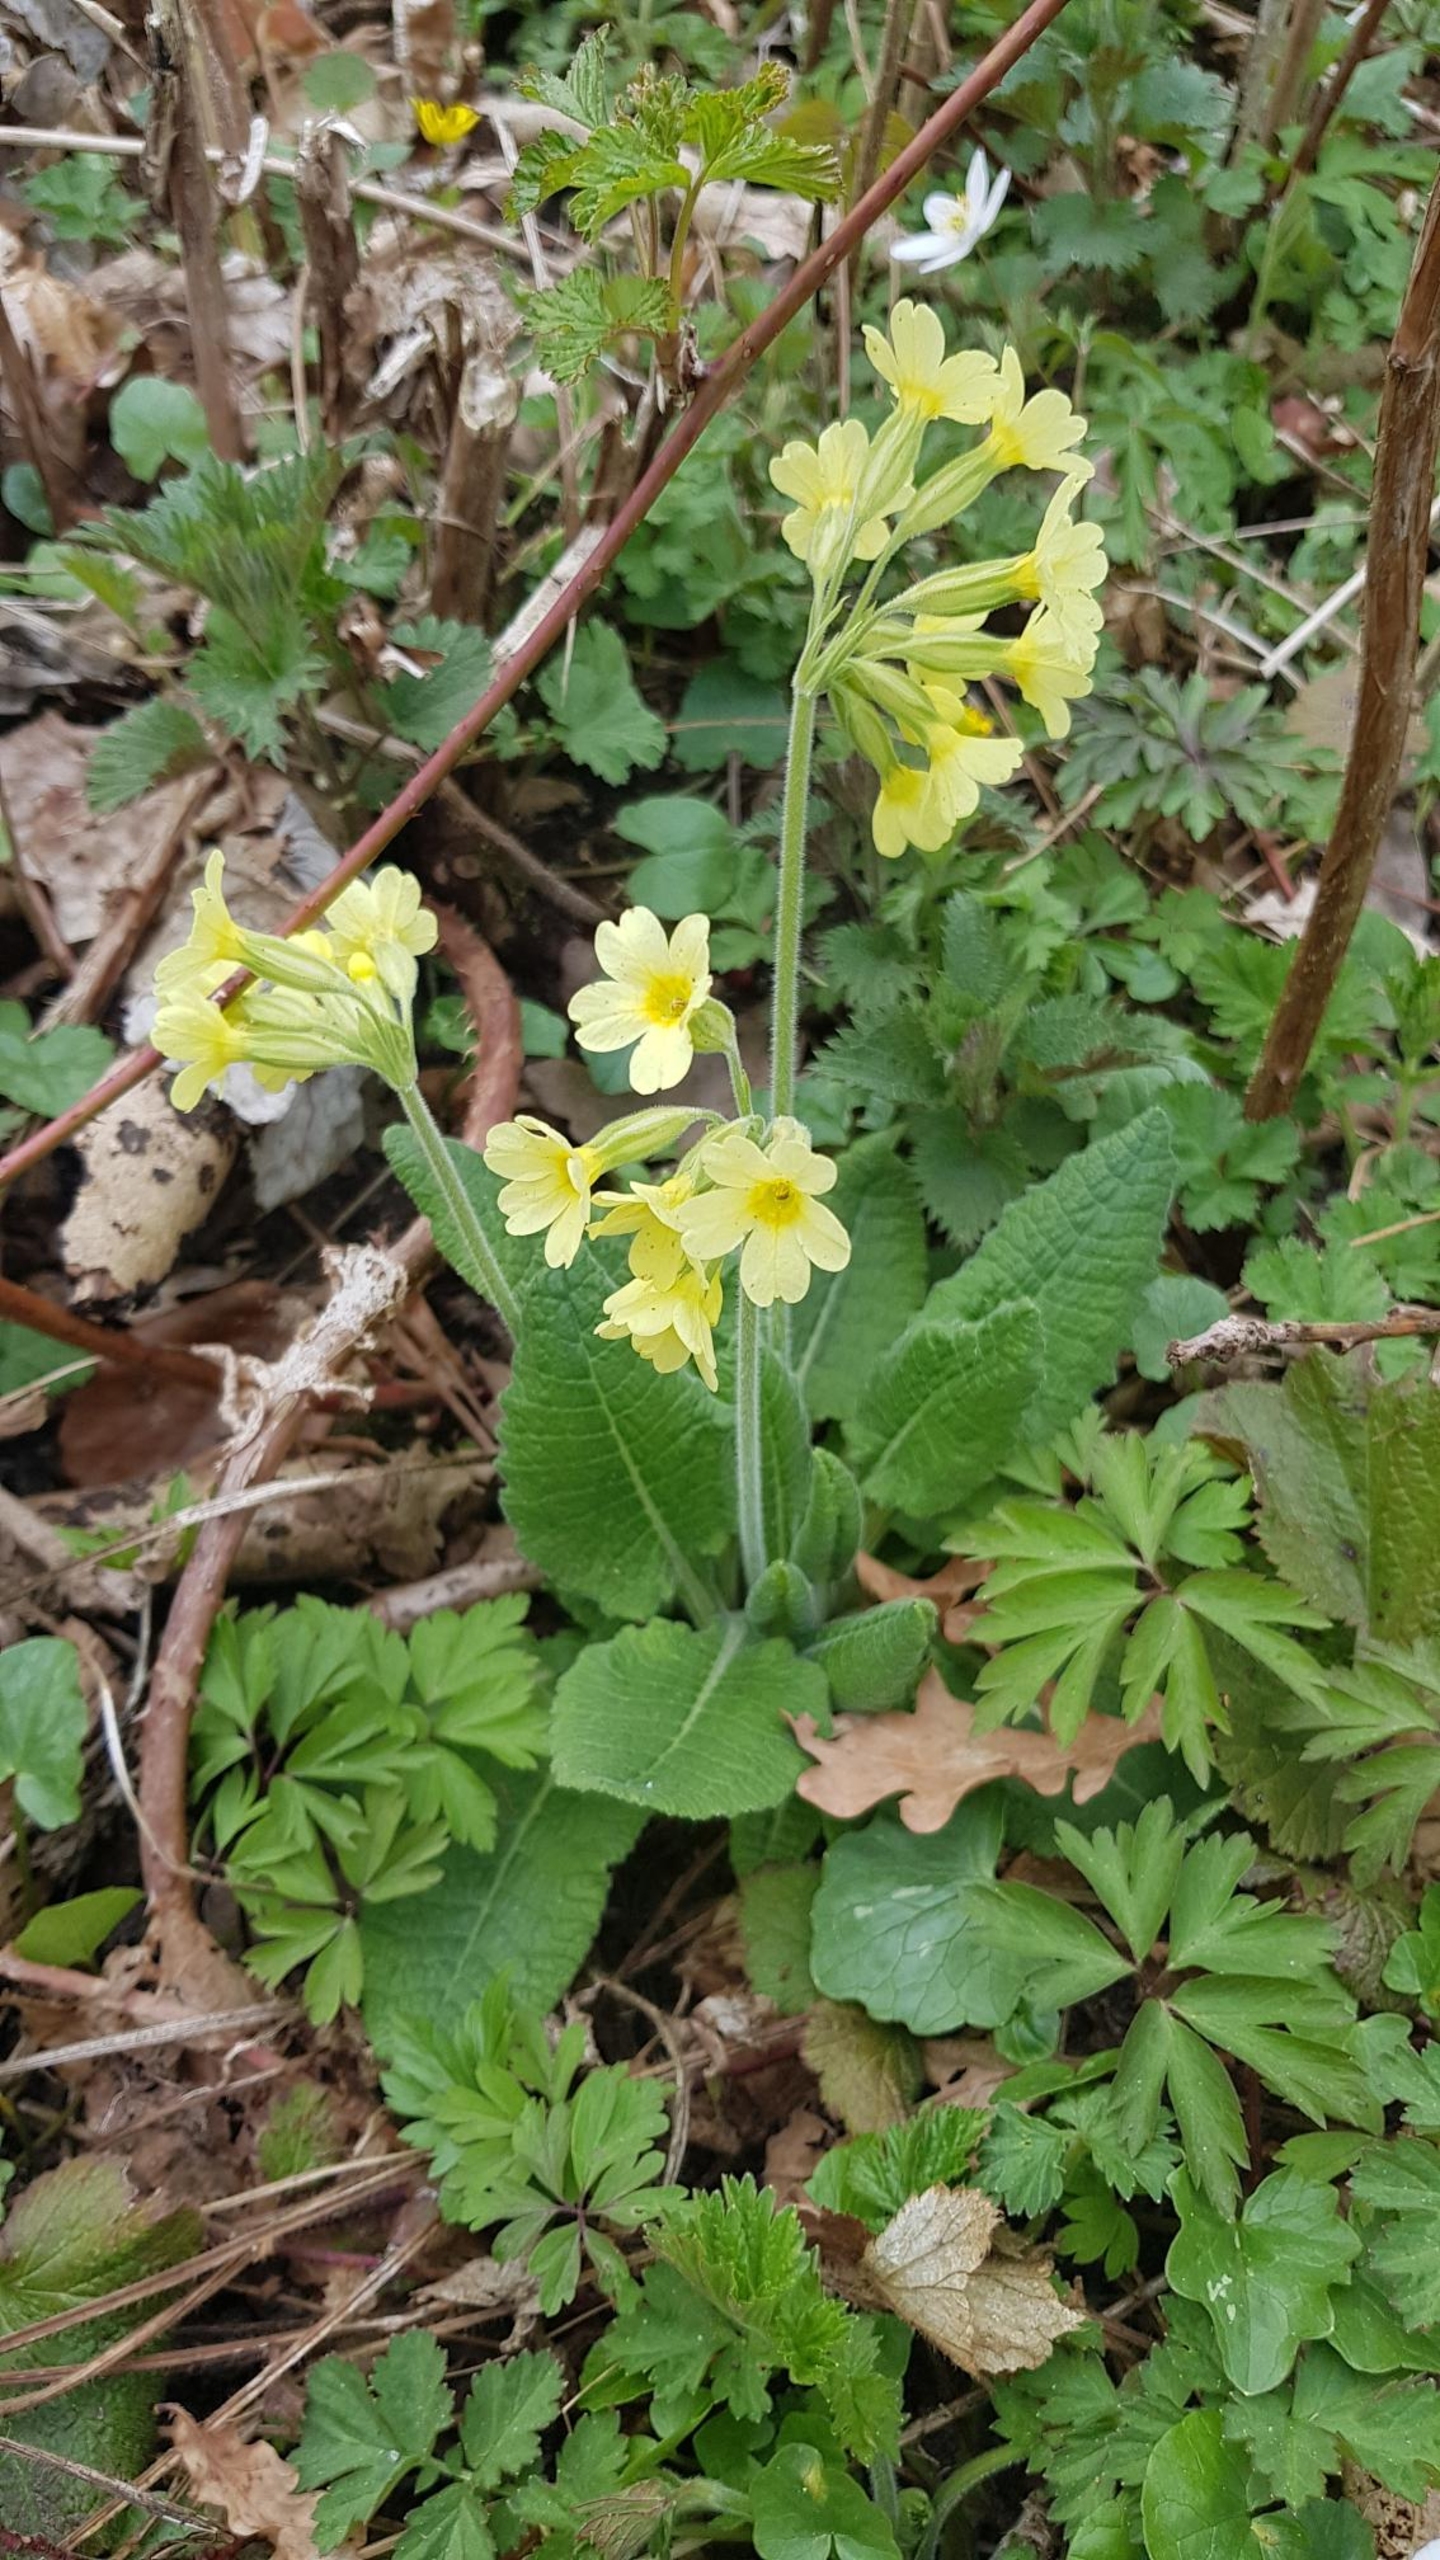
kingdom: Plantae
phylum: Tracheophyta
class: Magnoliopsida
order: Ericales
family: Primulaceae
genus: Primula
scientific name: Primula elatior
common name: Fladkravet kodriver
